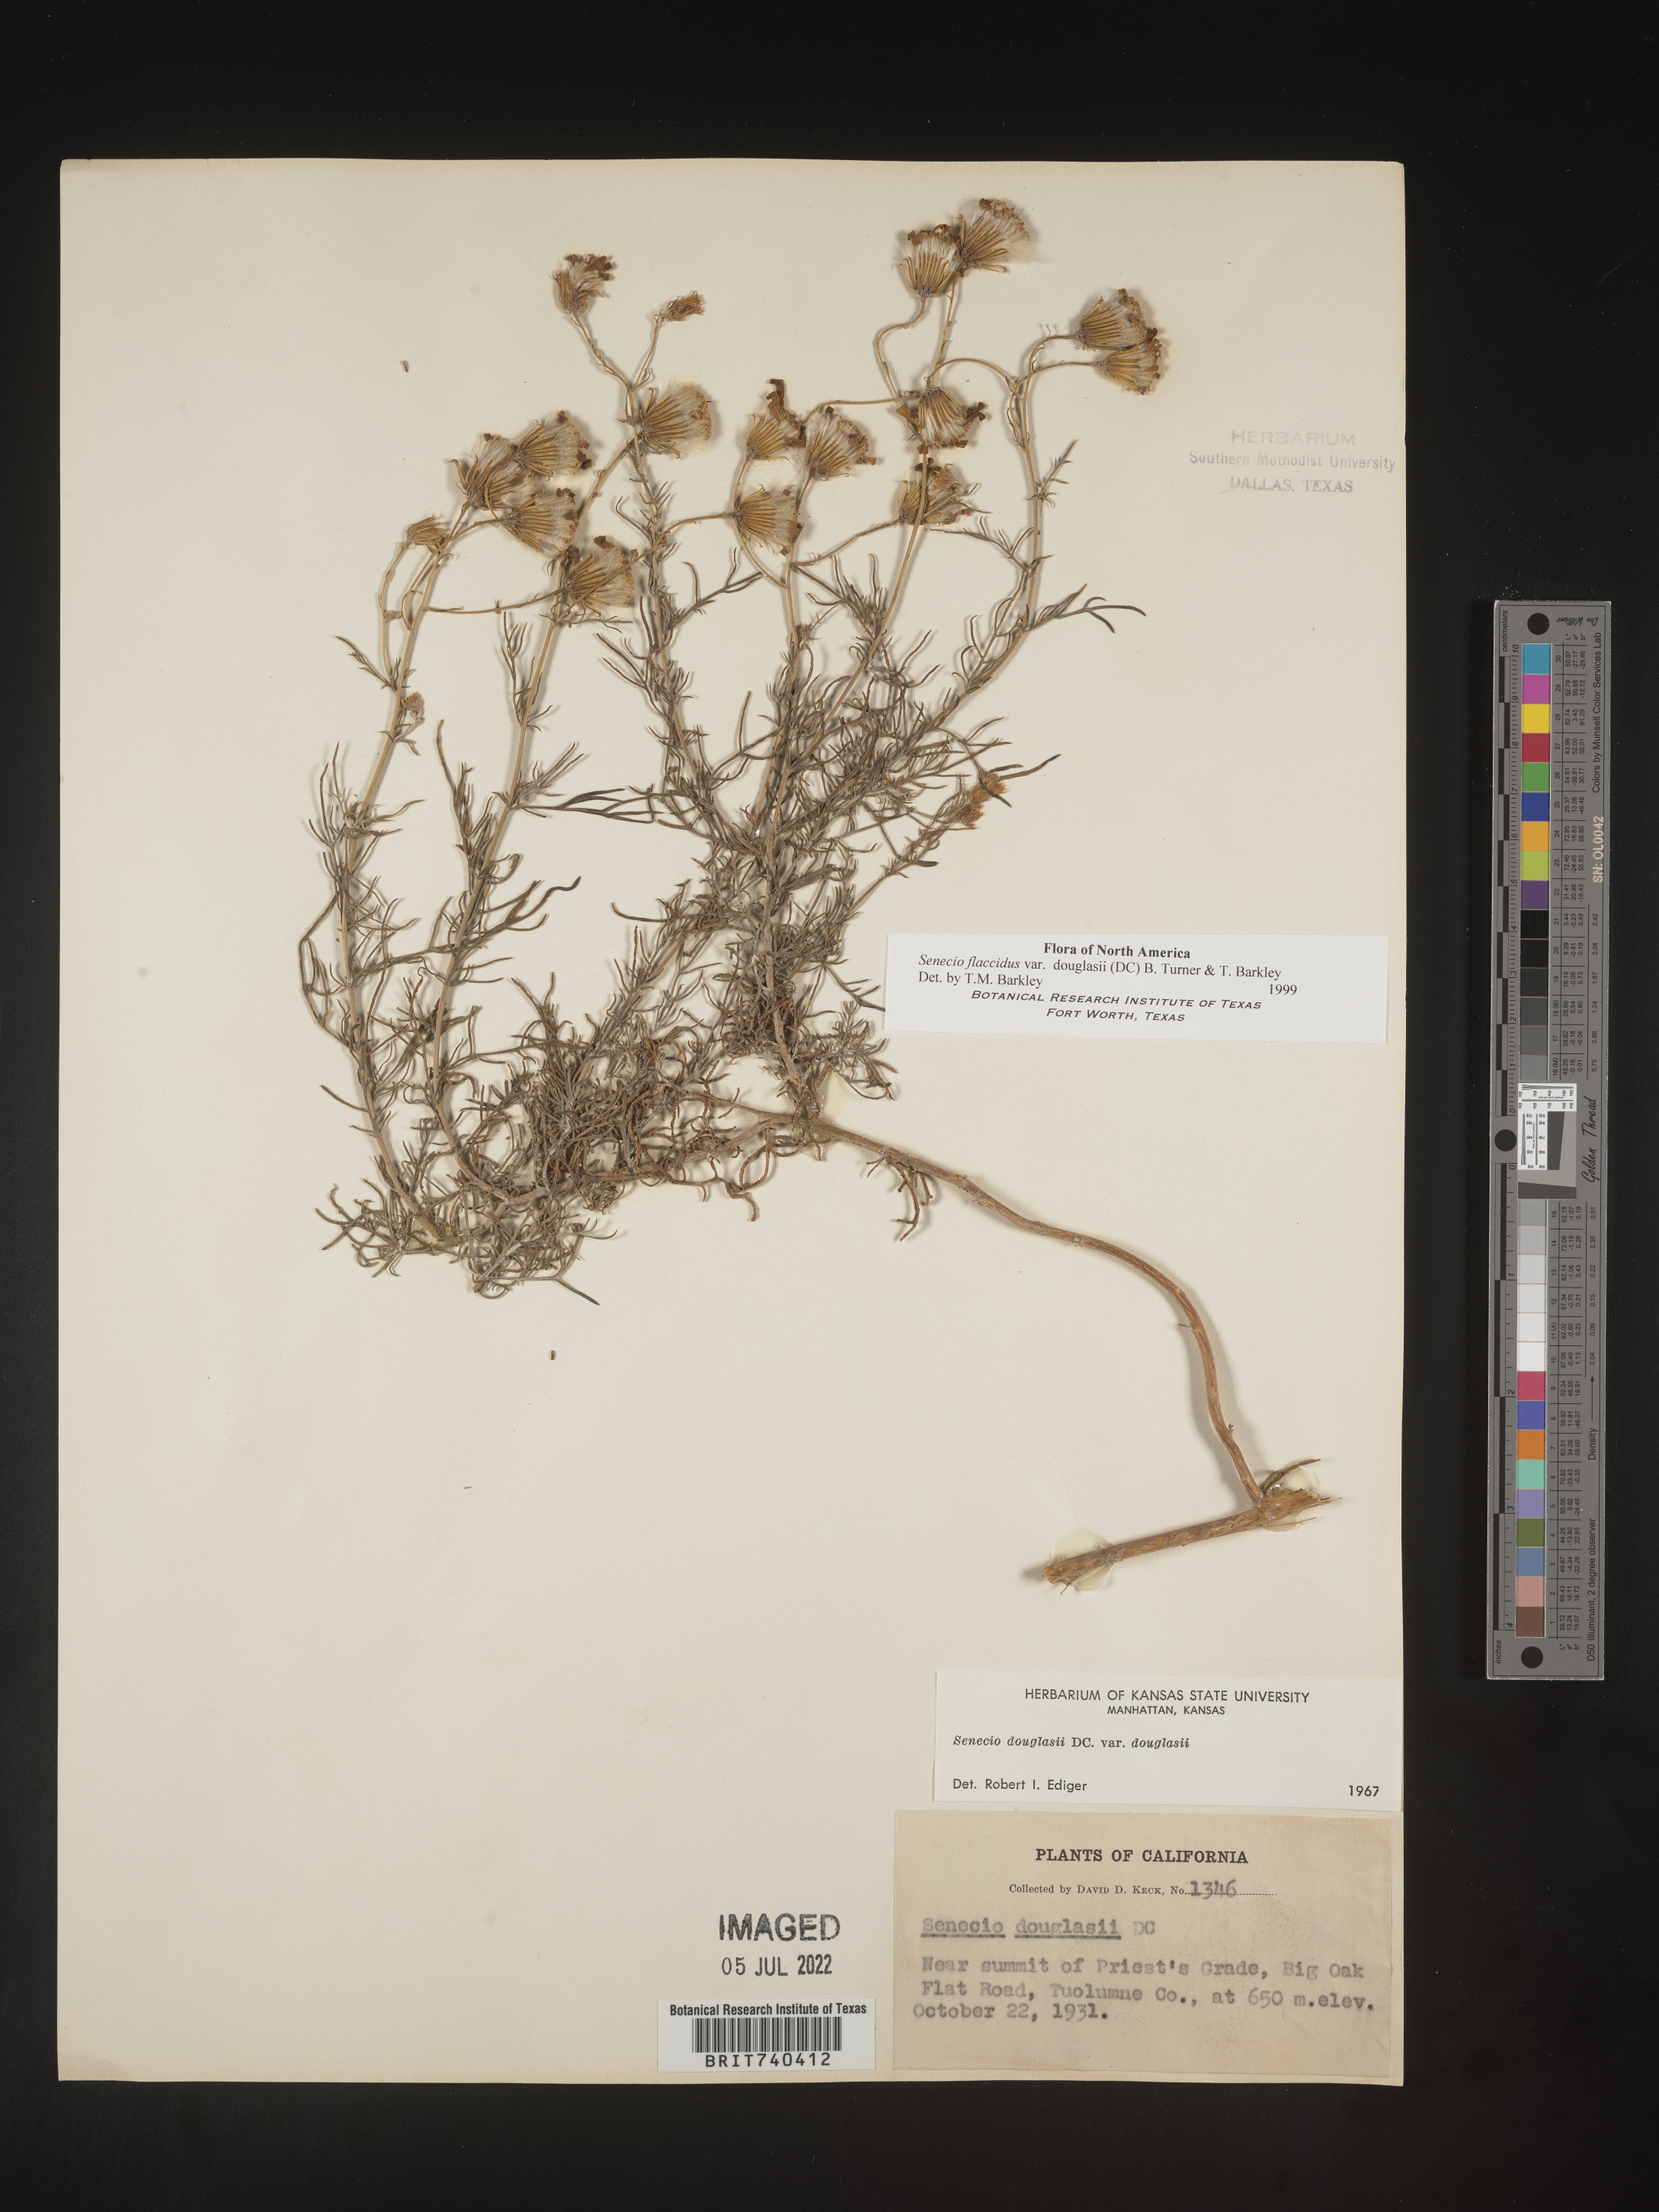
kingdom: Plantae
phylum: Tracheophyta
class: Magnoliopsida
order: Asterales
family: Asteraceae
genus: Senecio
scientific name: Senecio flaccidus
